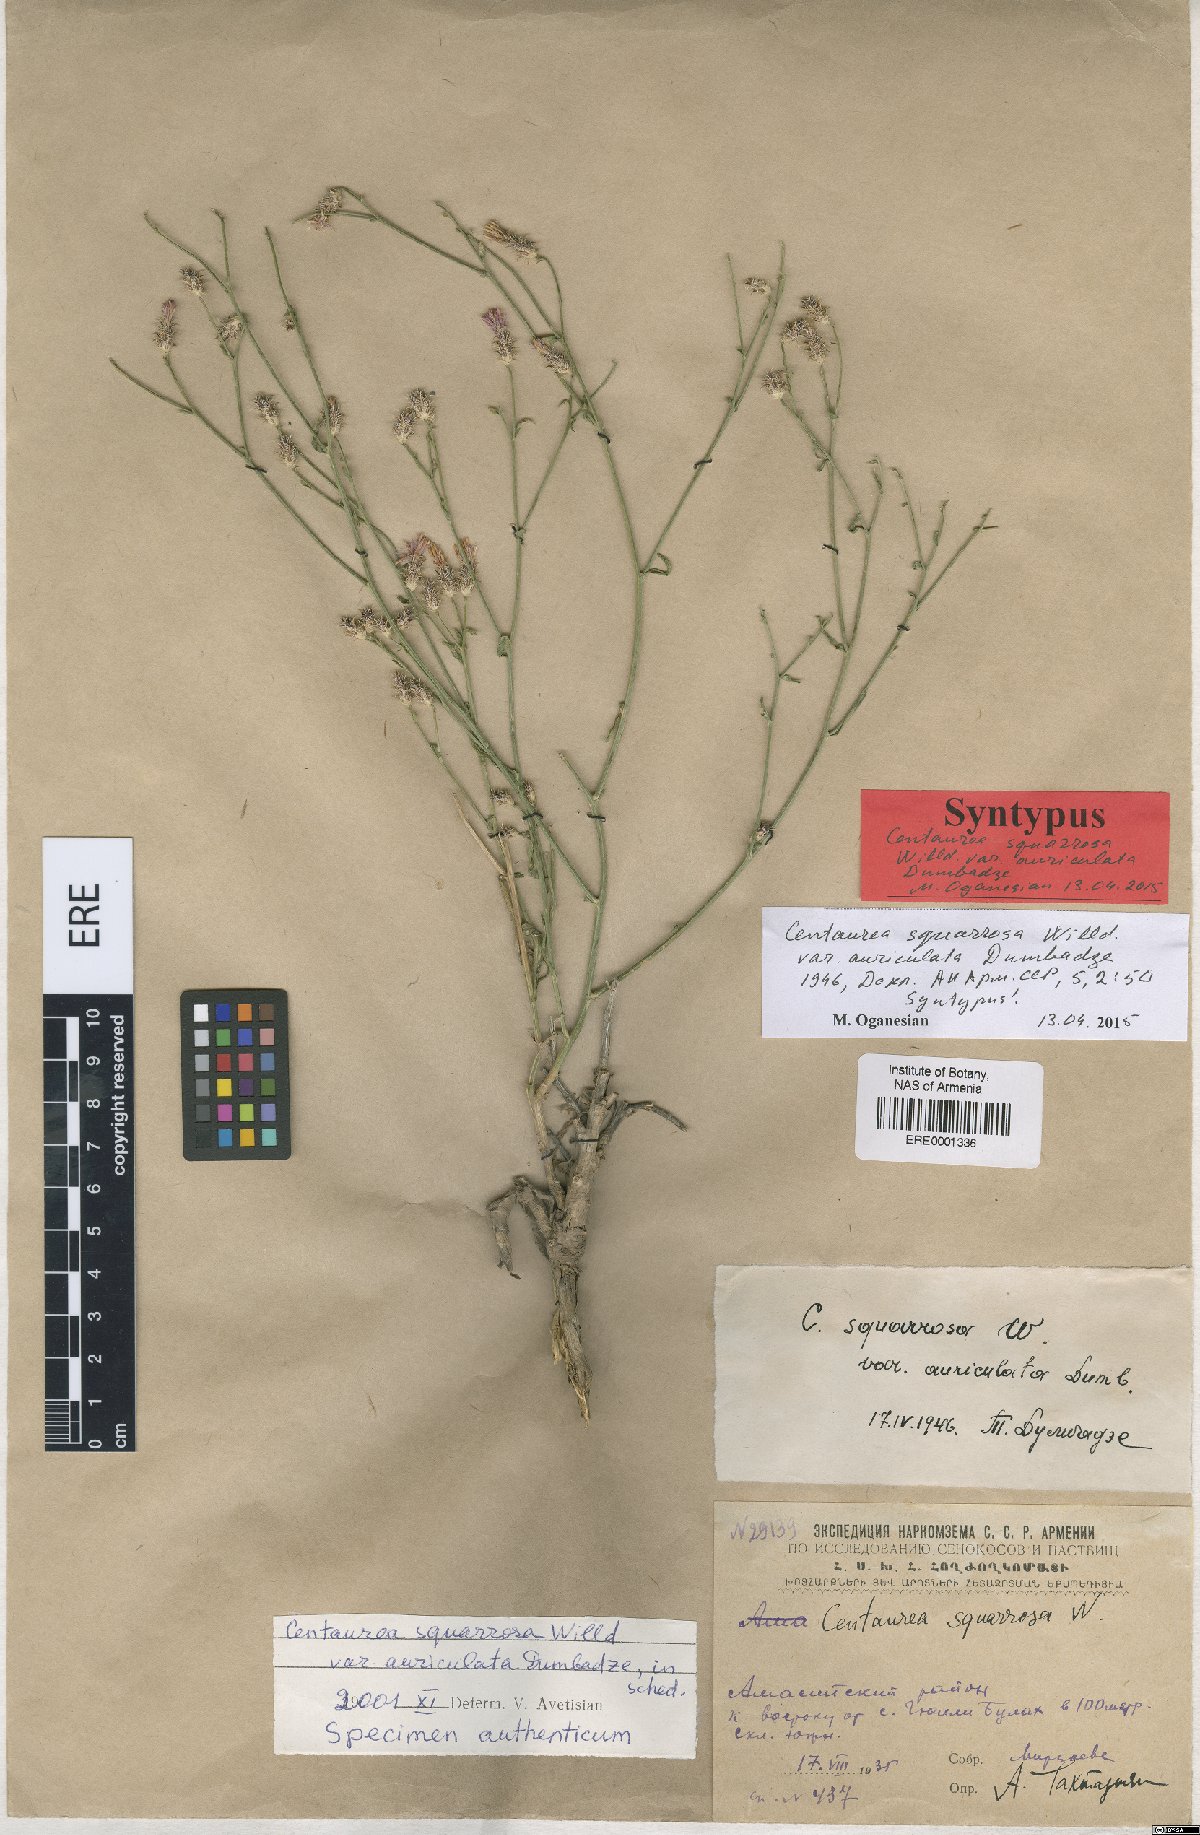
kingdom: Plantae
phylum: Tracheophyta
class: Magnoliopsida
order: Asterales
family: Asteraceae
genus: Centaurea
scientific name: Centaurea virgata
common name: Squarrose knapweed
